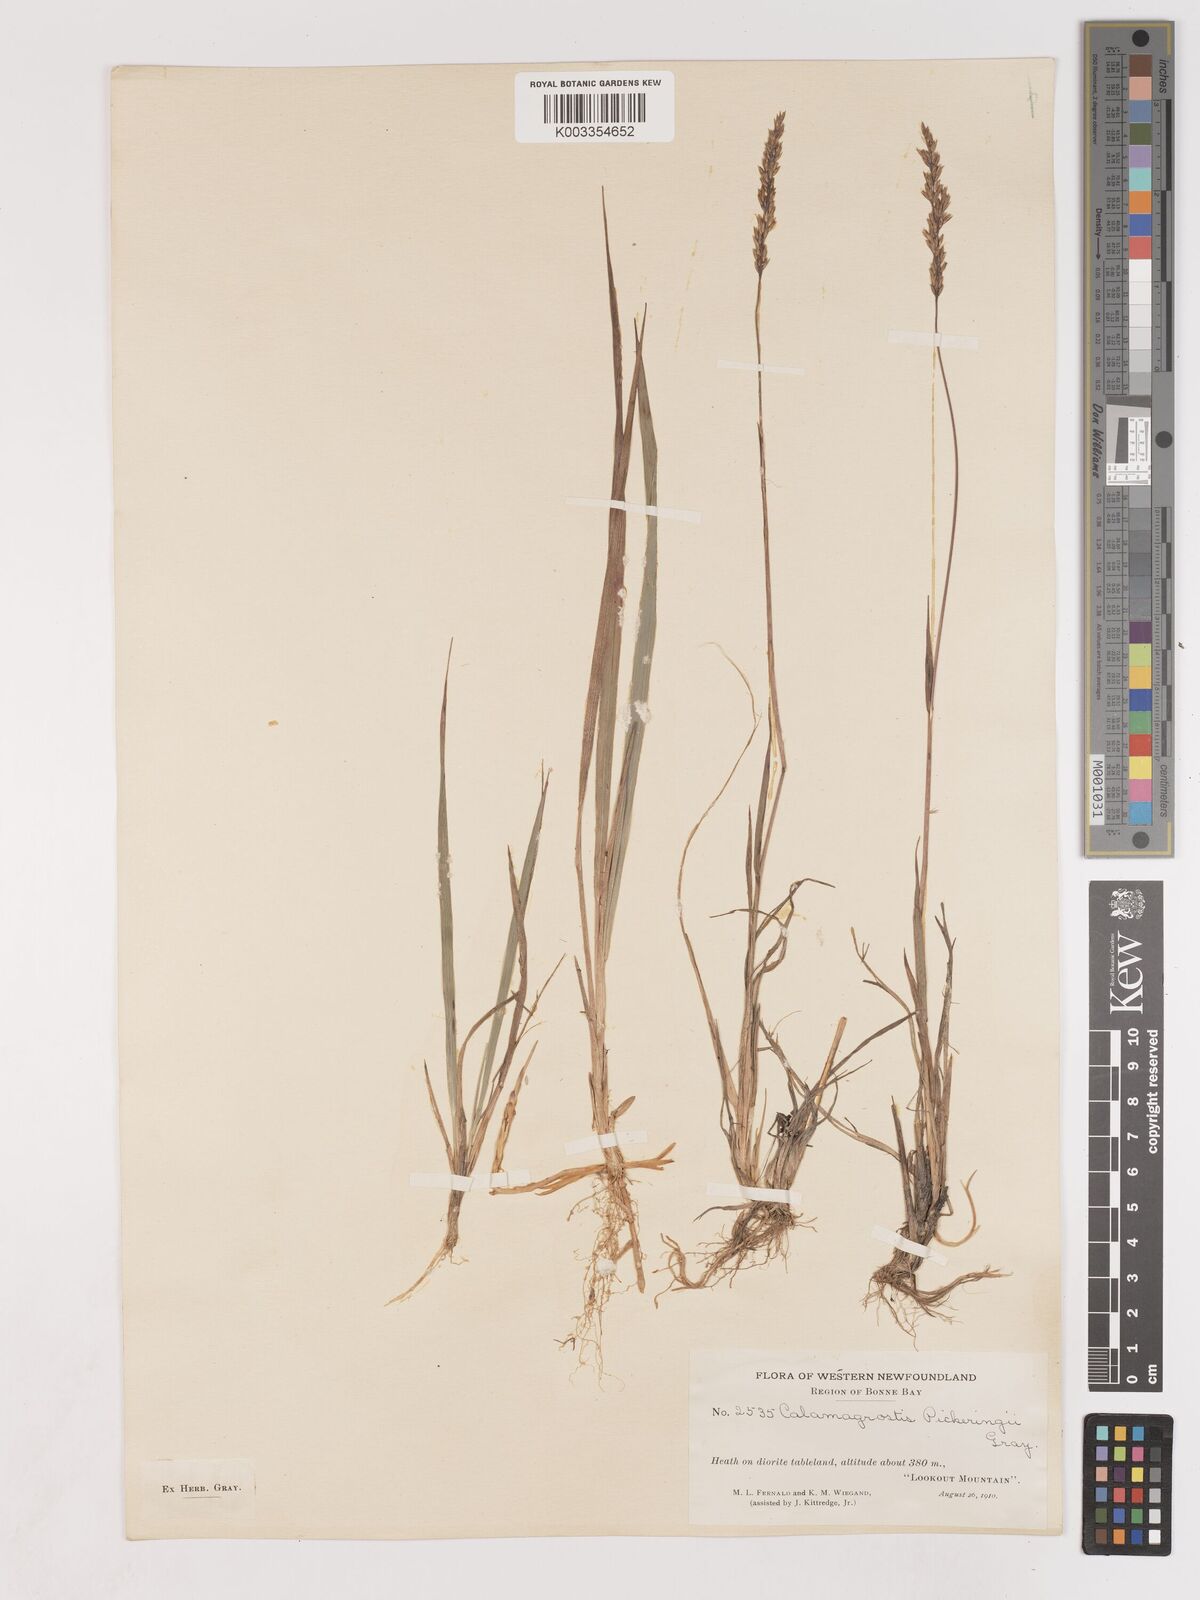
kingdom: Plantae
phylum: Tracheophyta
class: Liliopsida
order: Poales
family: Poaceae
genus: Calamagrostis
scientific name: Calamagrostis pickeringii
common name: Pickering's reed bentgrass
